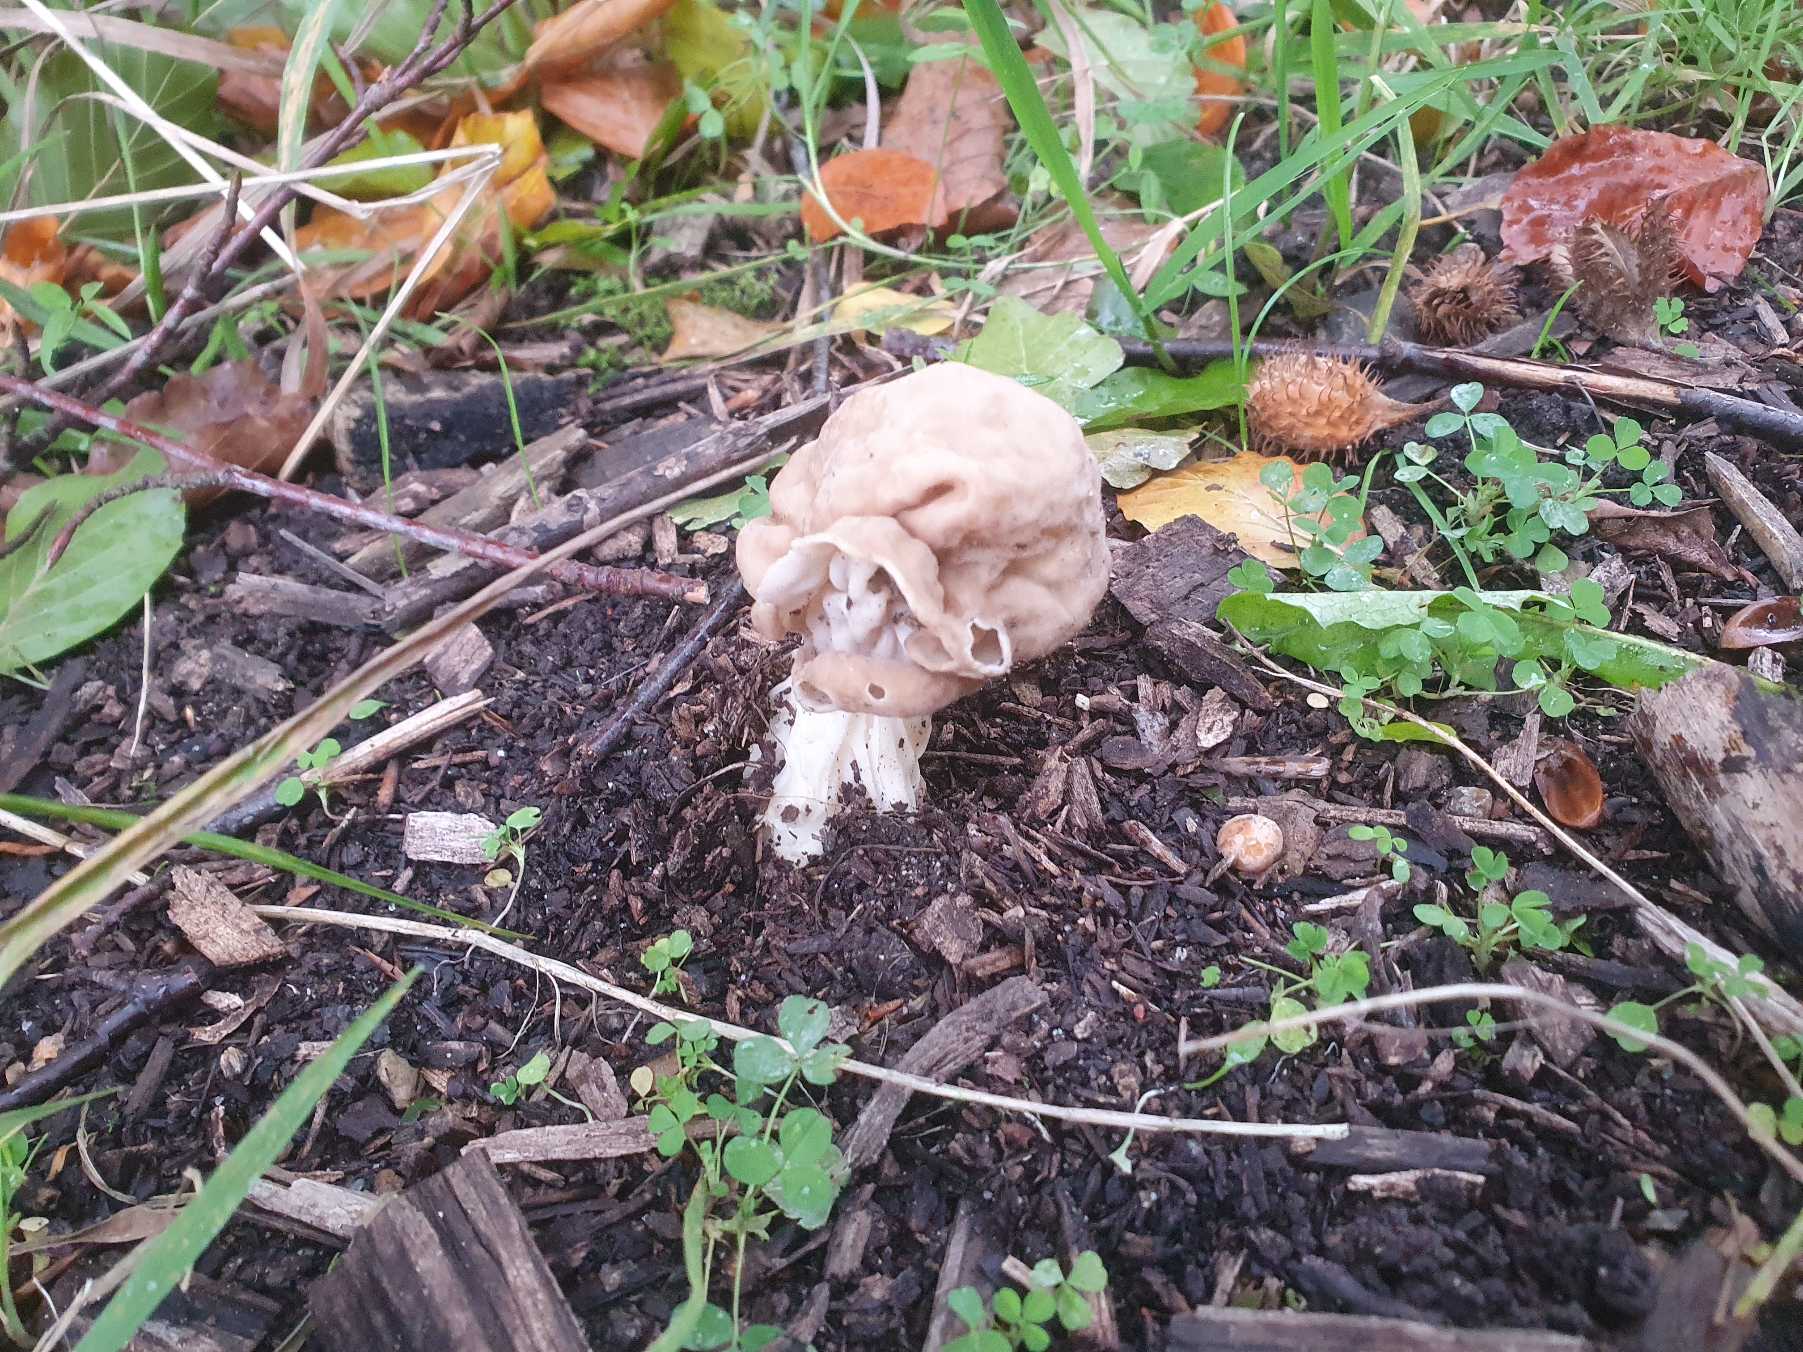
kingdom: Fungi
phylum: Ascomycota
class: Pezizomycetes
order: Pezizales
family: Helvellaceae
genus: Helvella
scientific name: Helvella crispa
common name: Kruset foldhat
